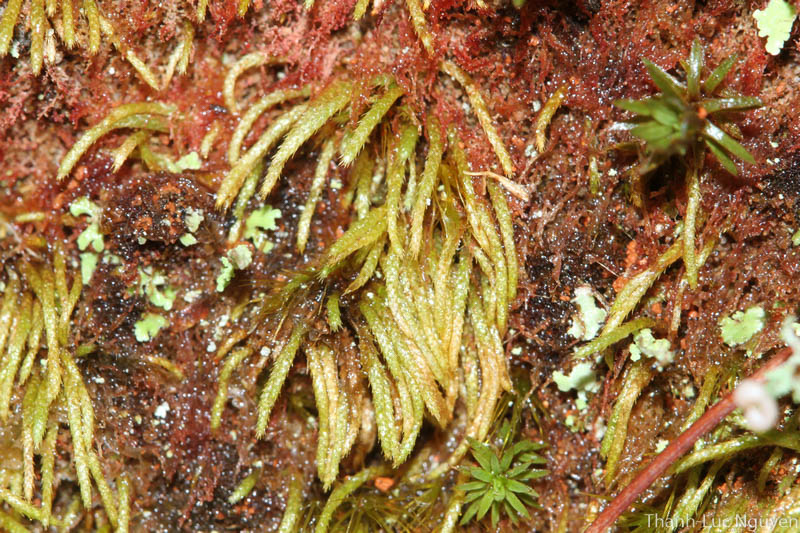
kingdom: Plantae
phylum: Bryophyta
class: Bryopsida
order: Bryales
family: Bryaceae
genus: Anomobryum
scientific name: Anomobryum
